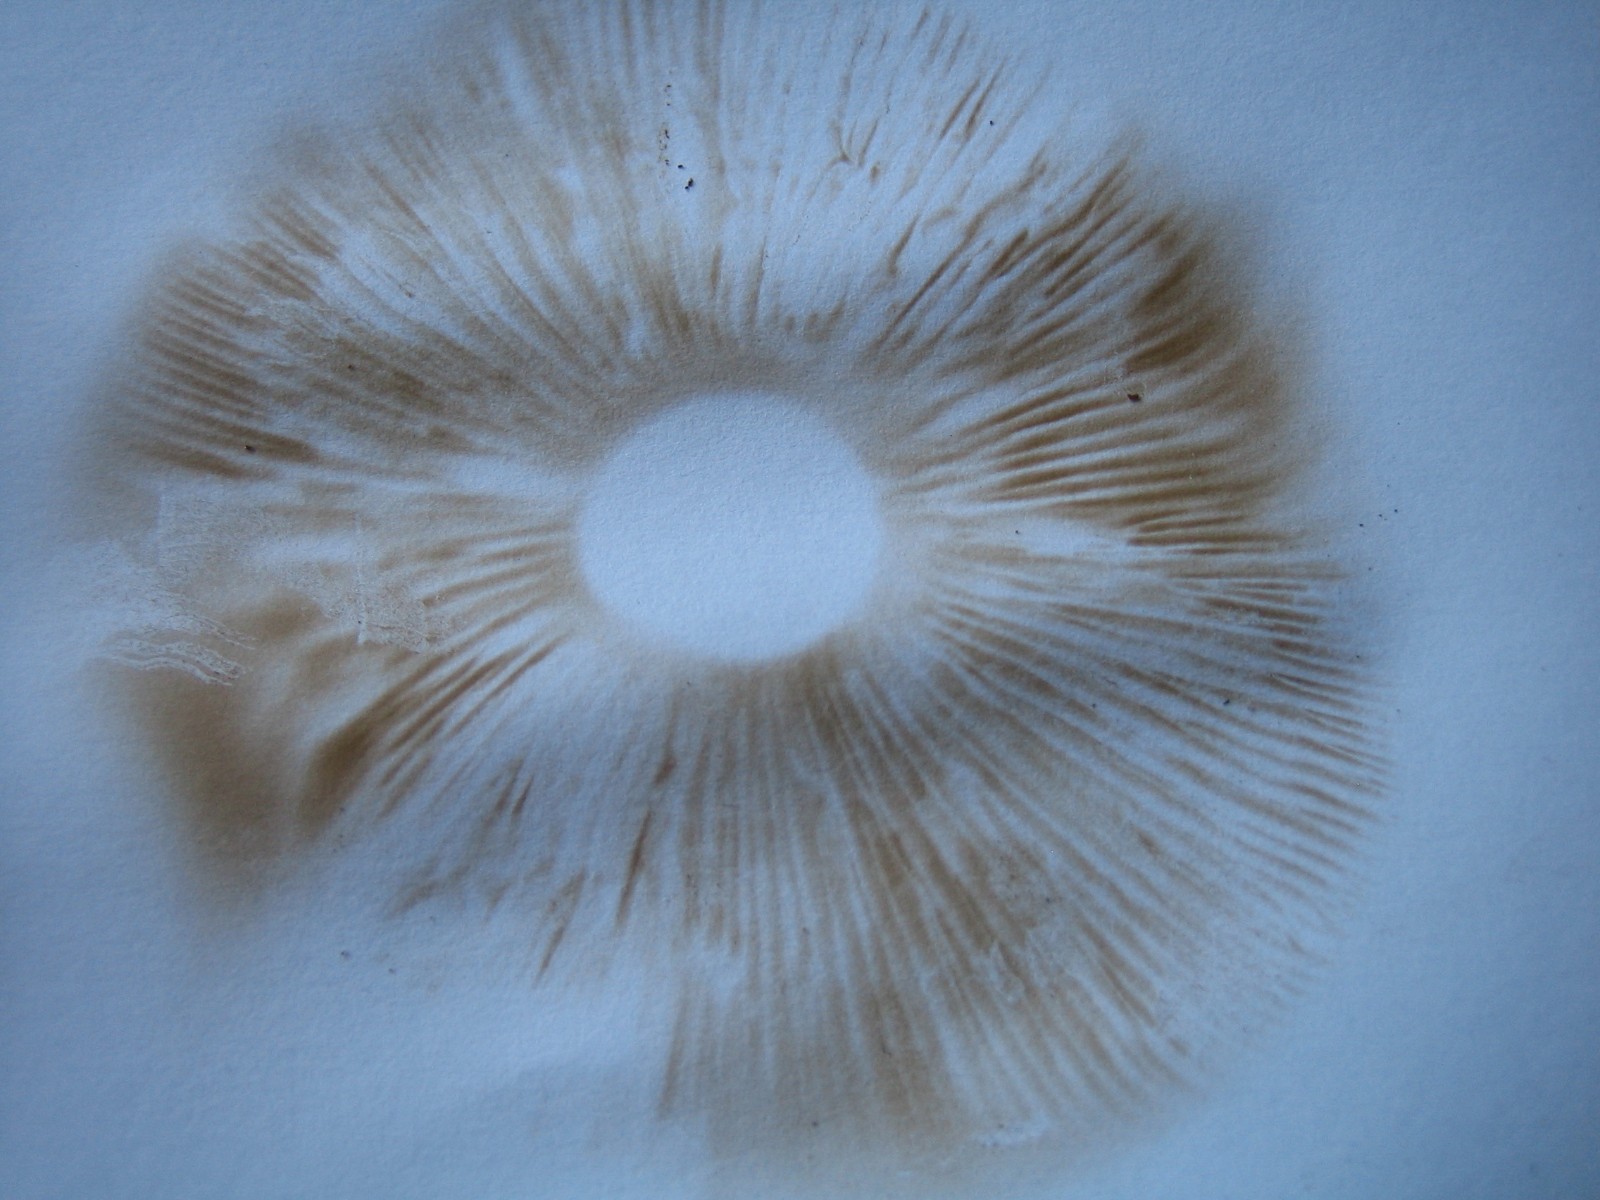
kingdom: Fungi
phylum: Basidiomycota
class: Agaricomycetes
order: Agaricales
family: Hymenogastraceae
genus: Hebeloma
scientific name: Hebeloma
